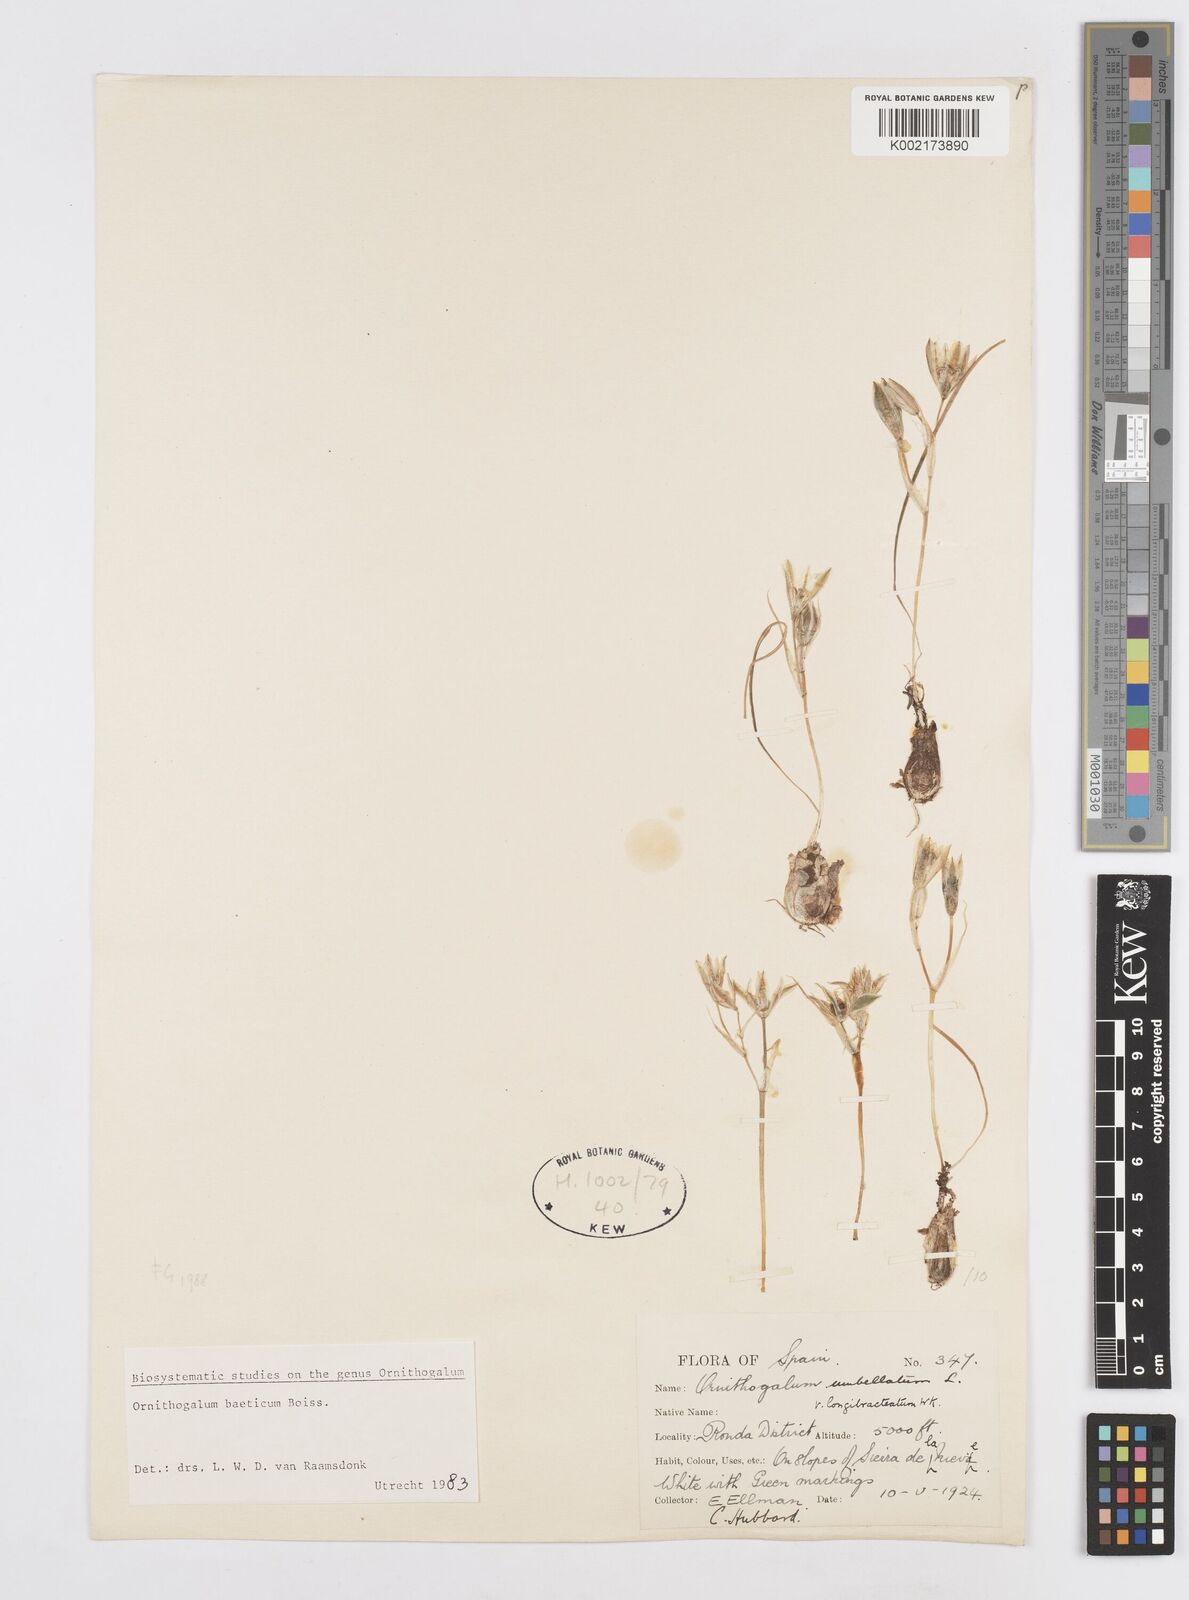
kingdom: Plantae
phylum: Tracheophyta
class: Liliopsida
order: Asparagales
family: Asparagaceae
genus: Ornithogalum
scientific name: Ornithogalum orthophyllum
